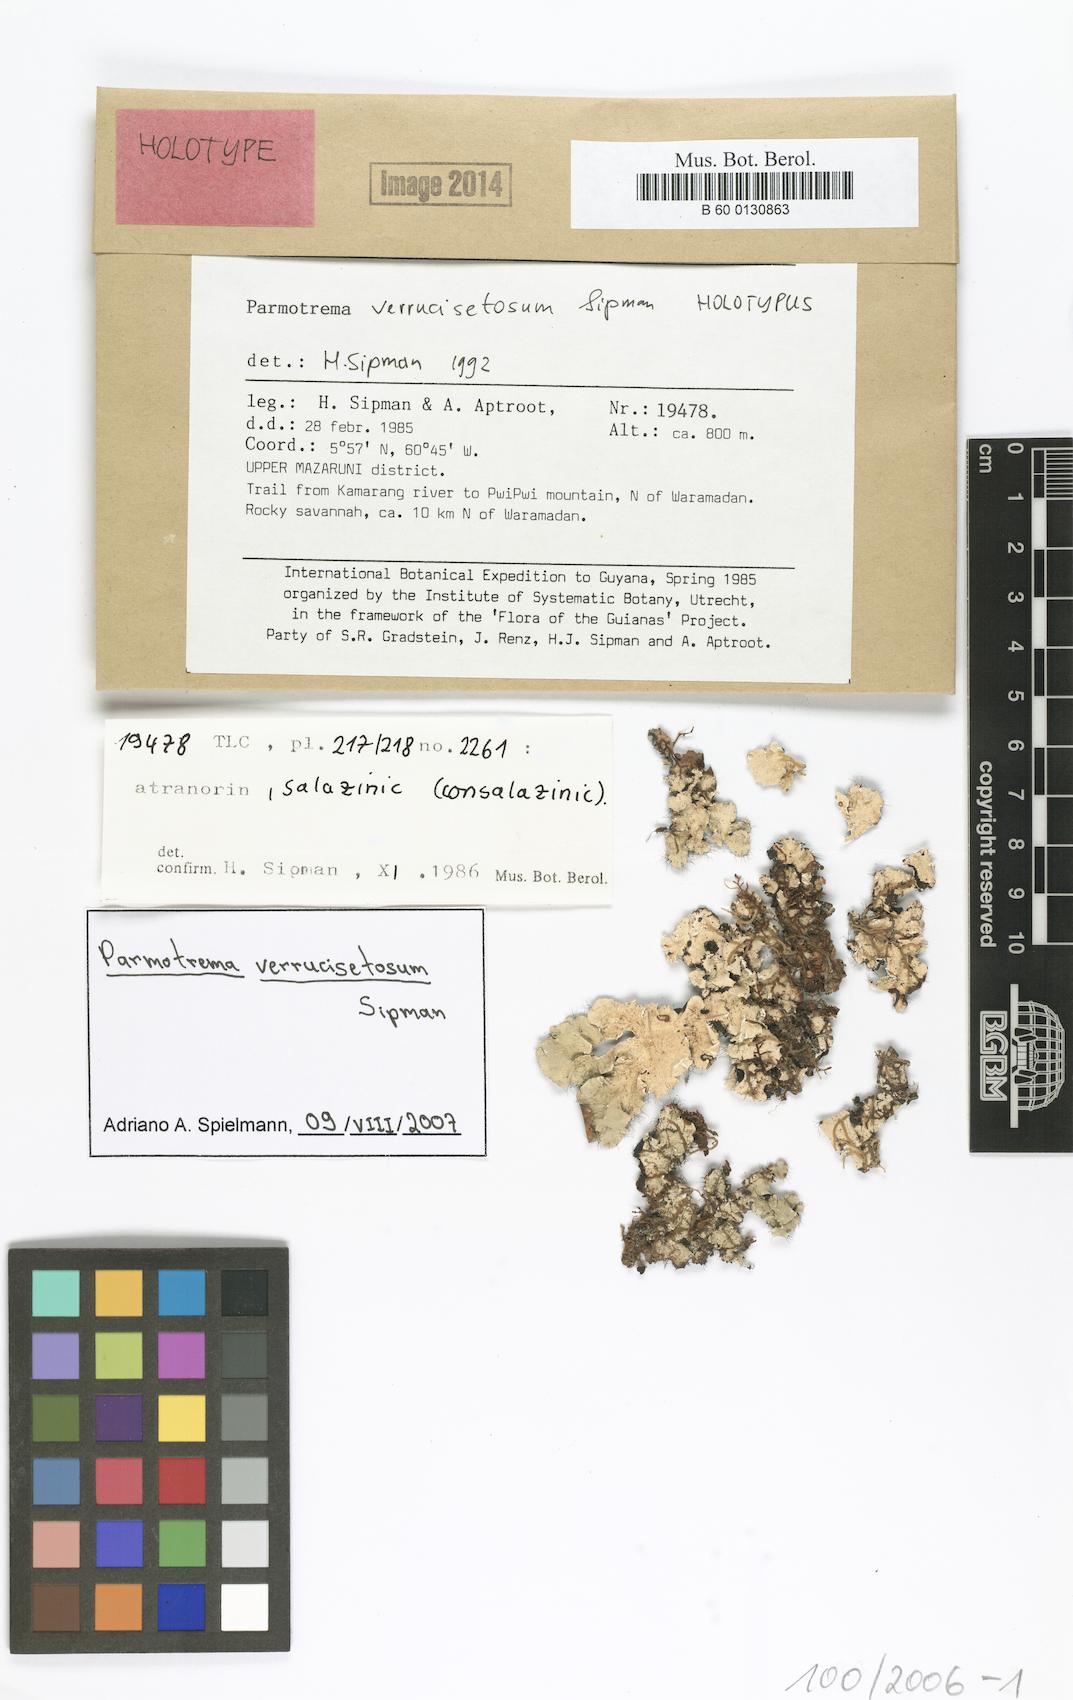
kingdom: Fungi
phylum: Ascomycota
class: Lecanoromycetes
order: Lecanorales
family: Parmeliaceae
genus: Parmotrema
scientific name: Parmotrema verrucisetosum
